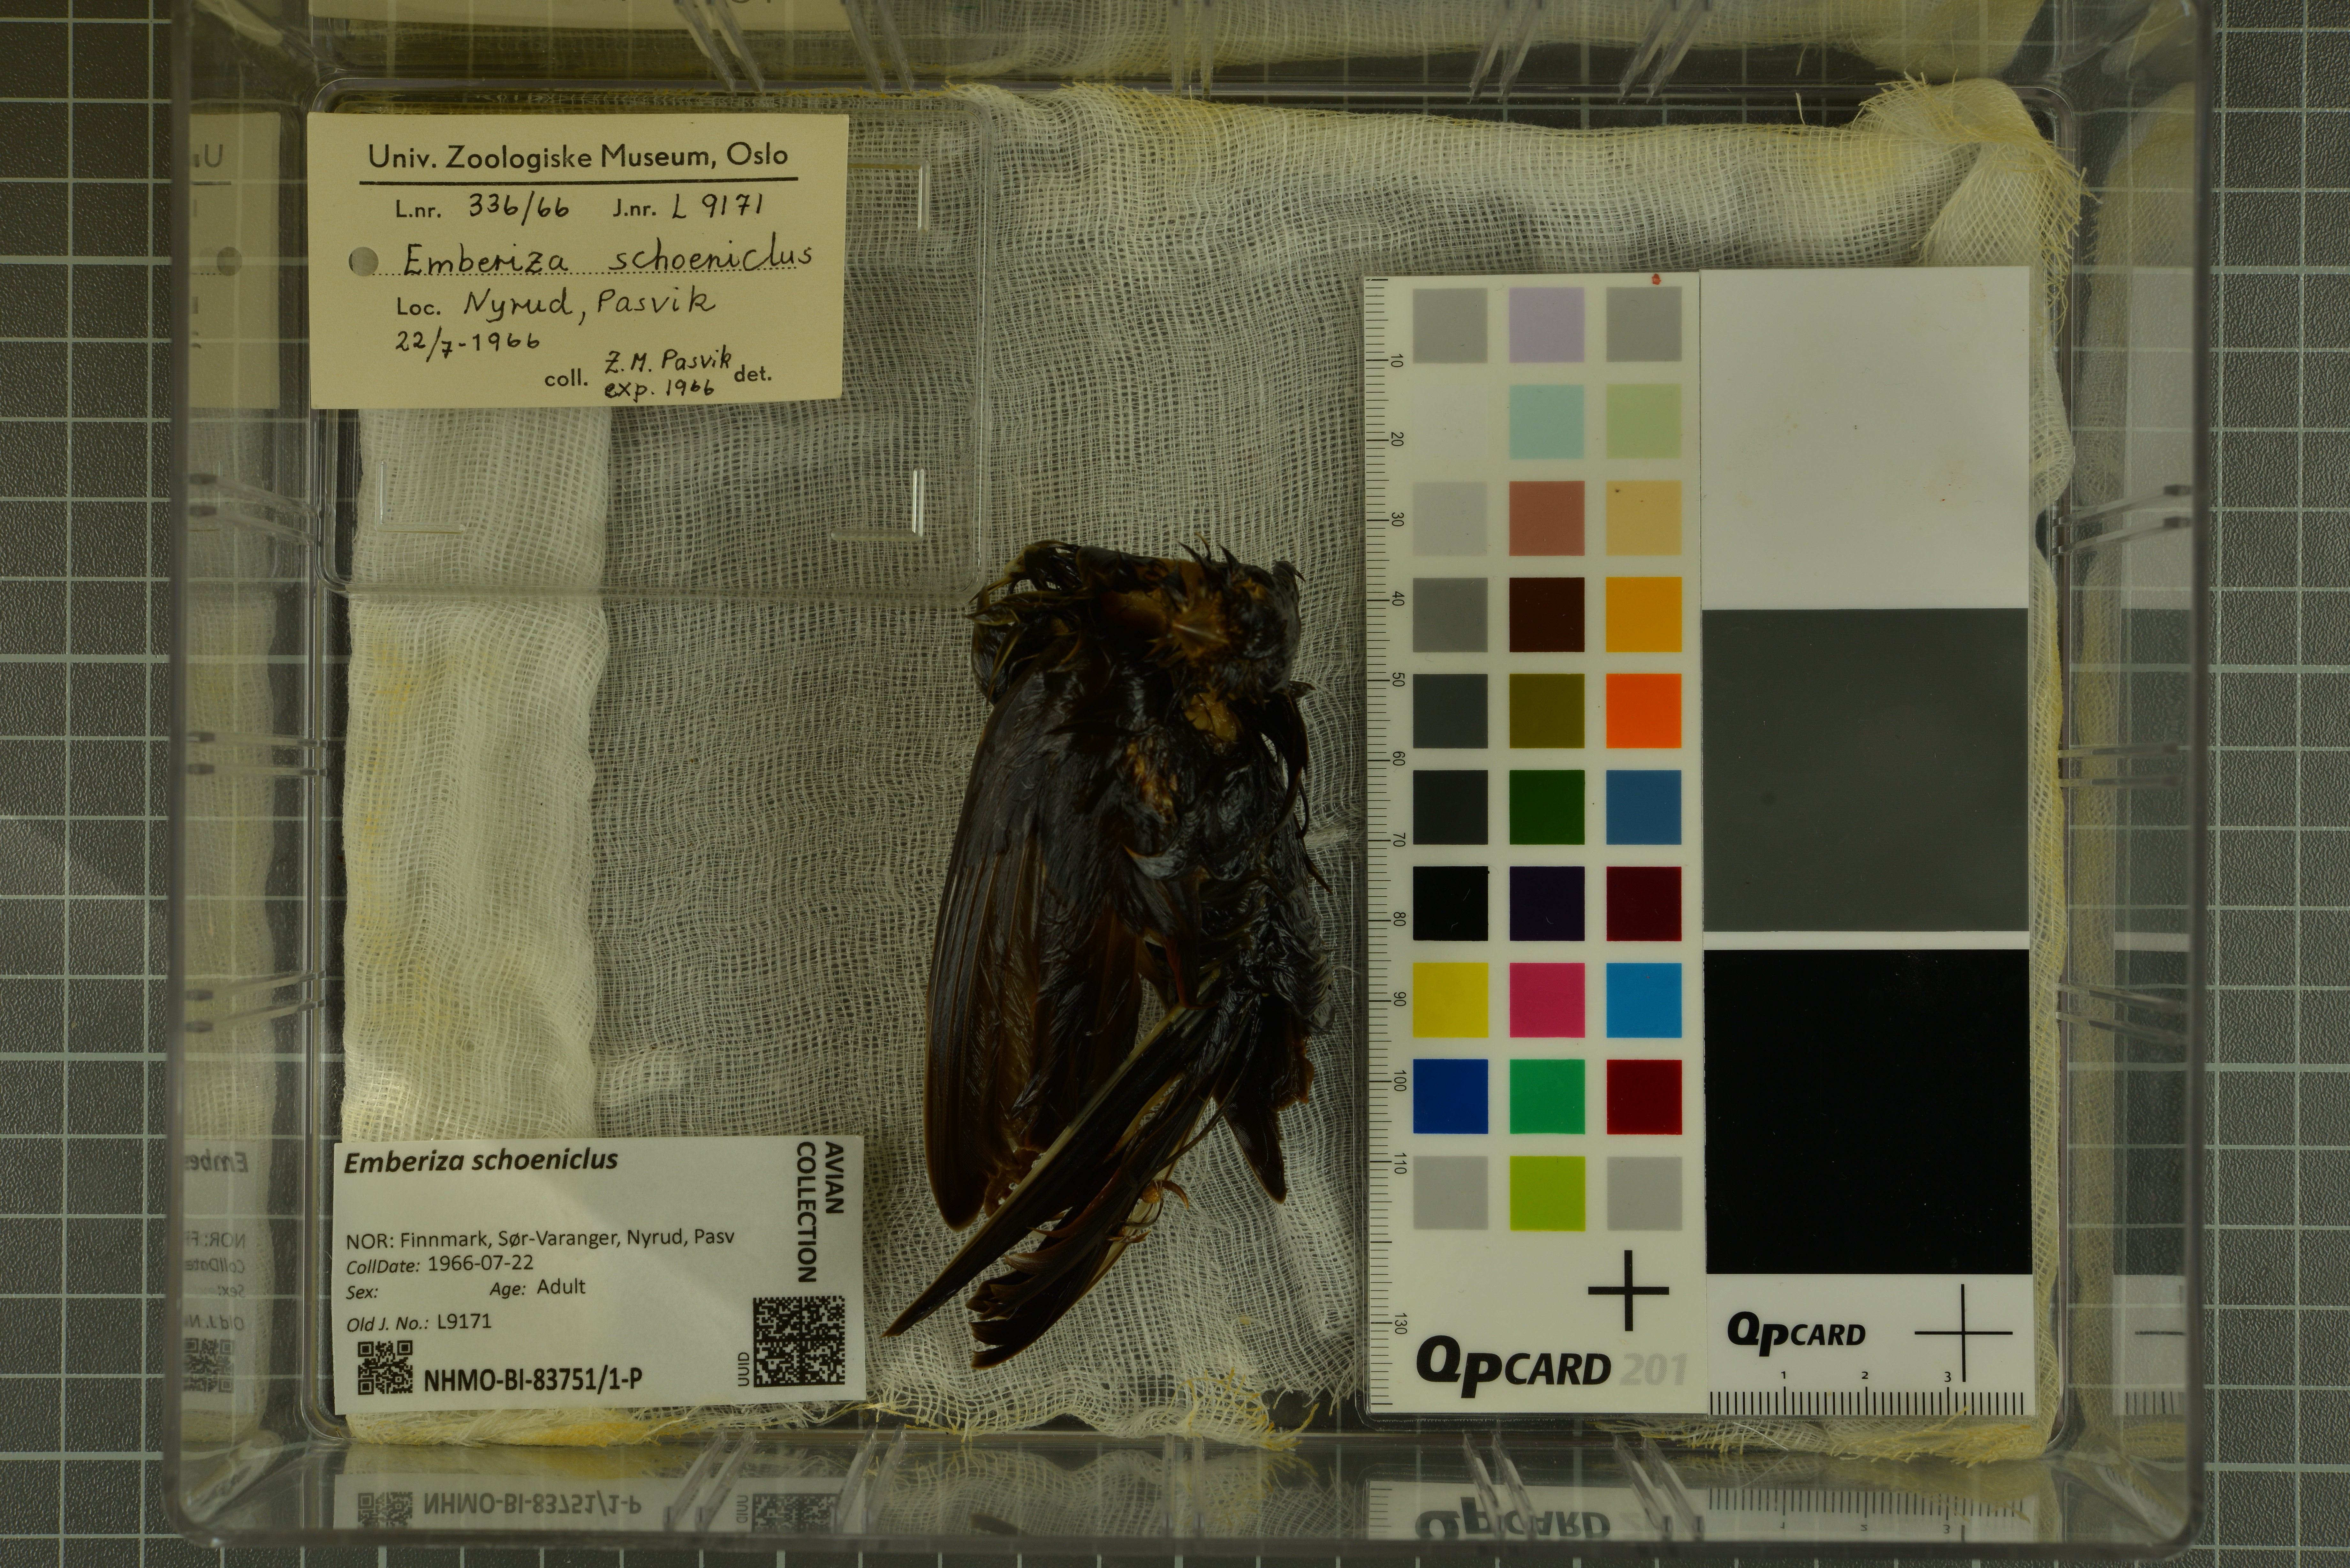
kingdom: Animalia
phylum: Chordata
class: Aves
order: Passeriformes
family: Emberizidae
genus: Emberiza
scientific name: Emberiza schoeniclus
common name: Reed bunting
